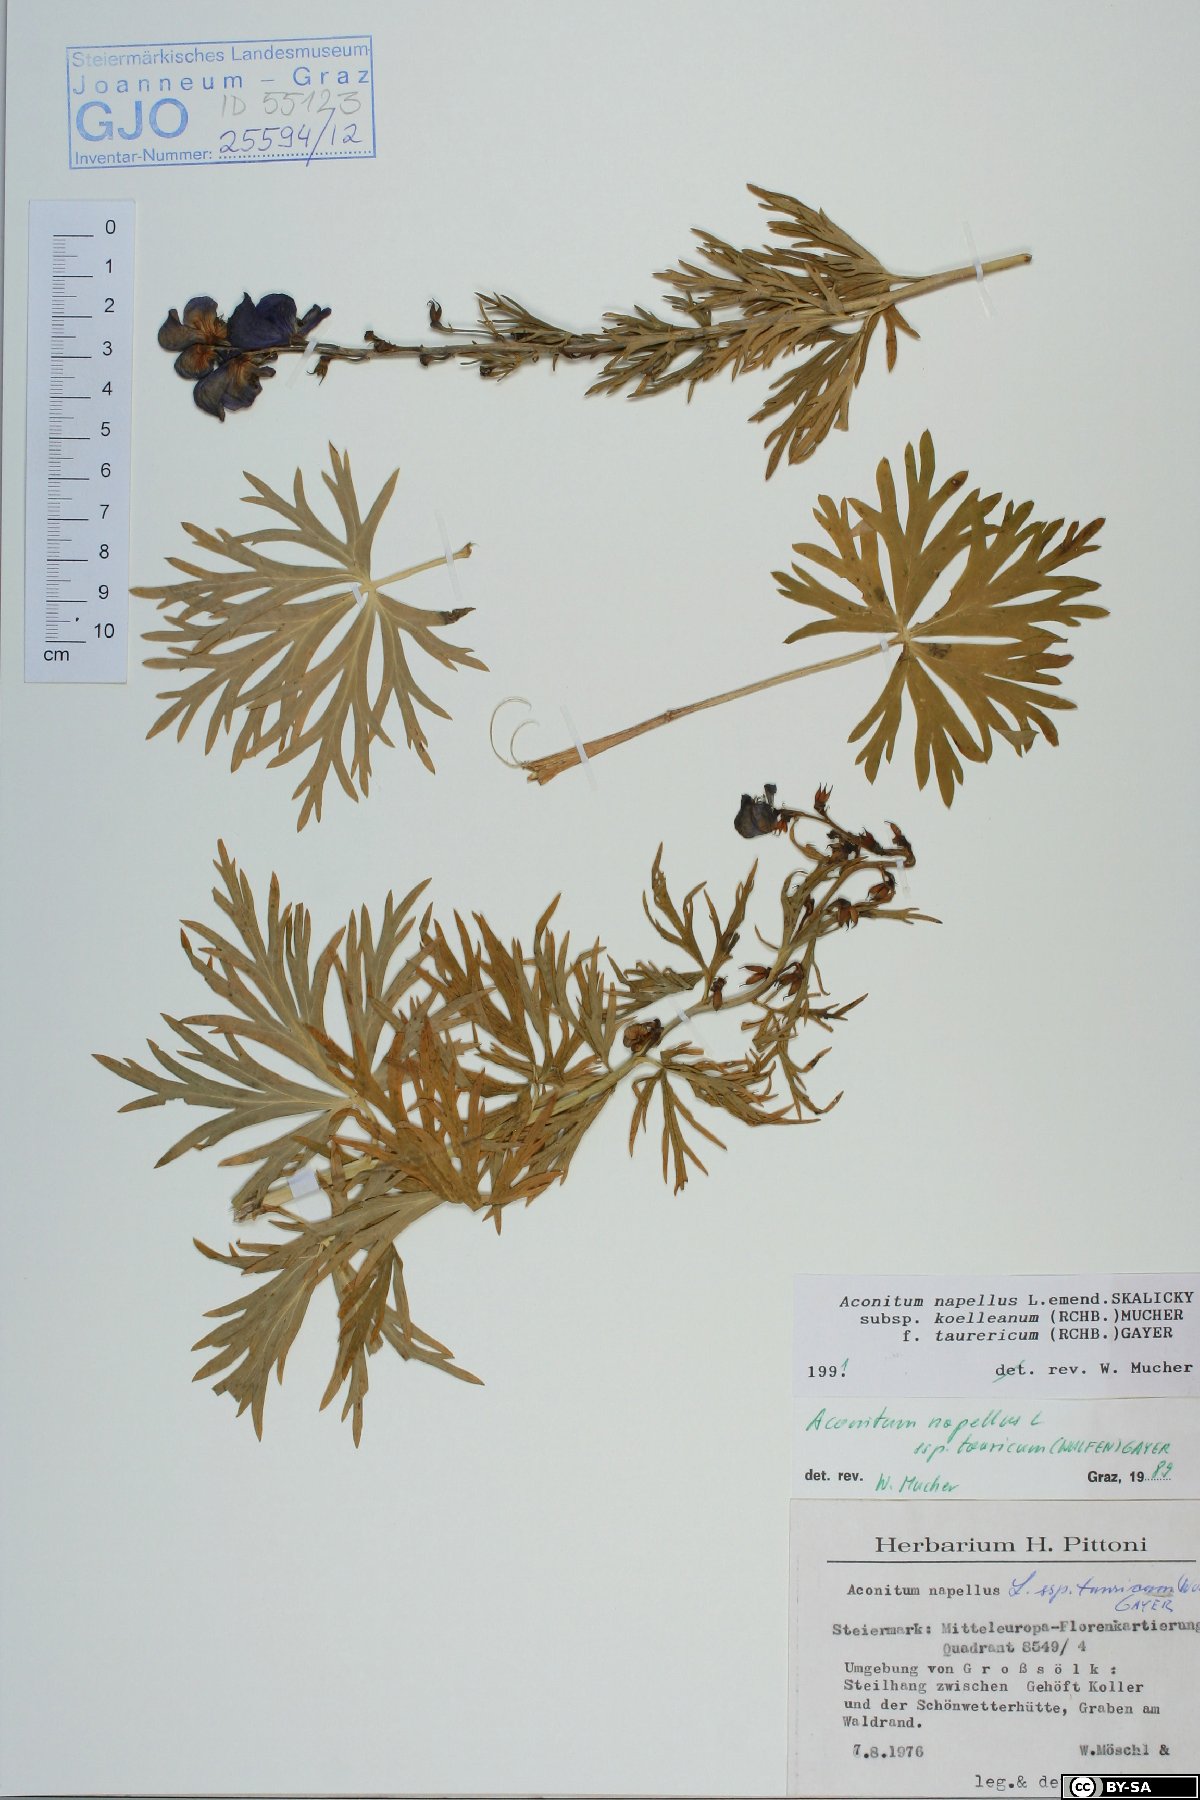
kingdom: Plantae
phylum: Tracheophyta
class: Magnoliopsida
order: Ranunculales
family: Ranunculaceae
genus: Aconitum
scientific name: Aconitum tauricum
